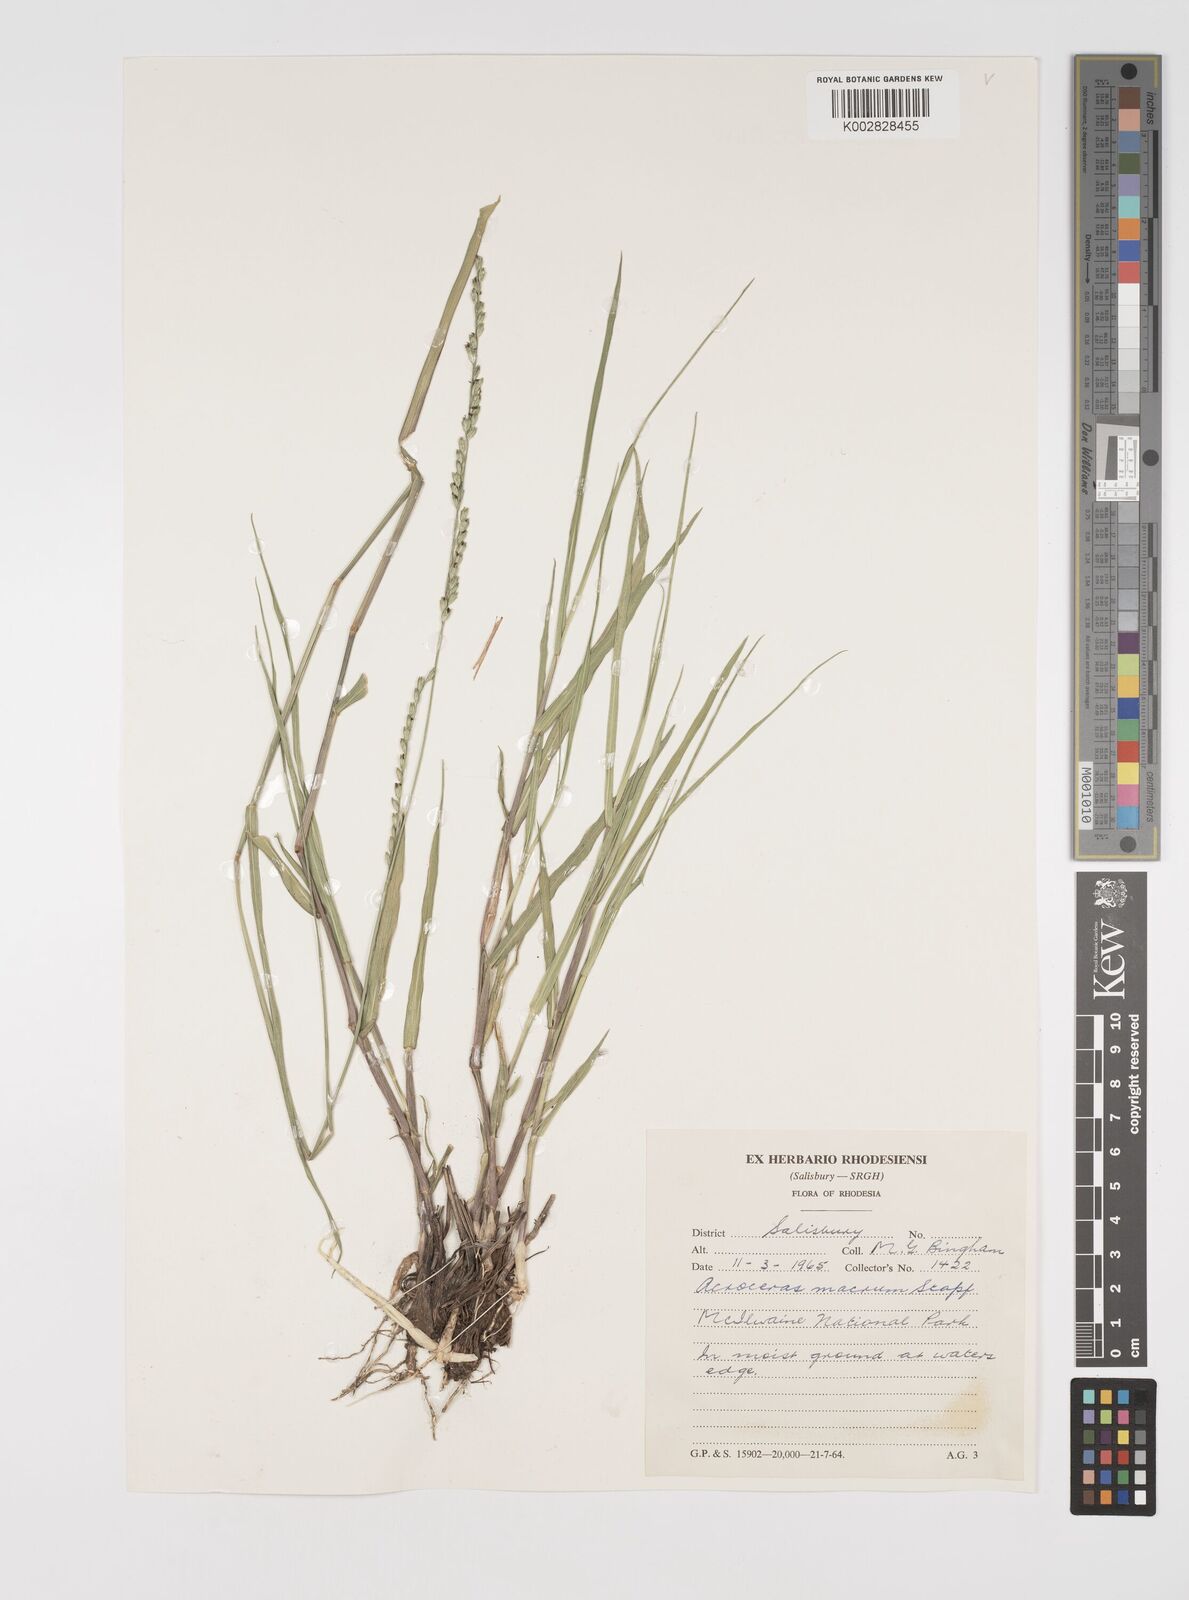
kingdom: Plantae
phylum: Tracheophyta
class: Liliopsida
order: Poales
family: Poaceae
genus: Acroceras
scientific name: Acroceras macrum
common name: Nyl grass
